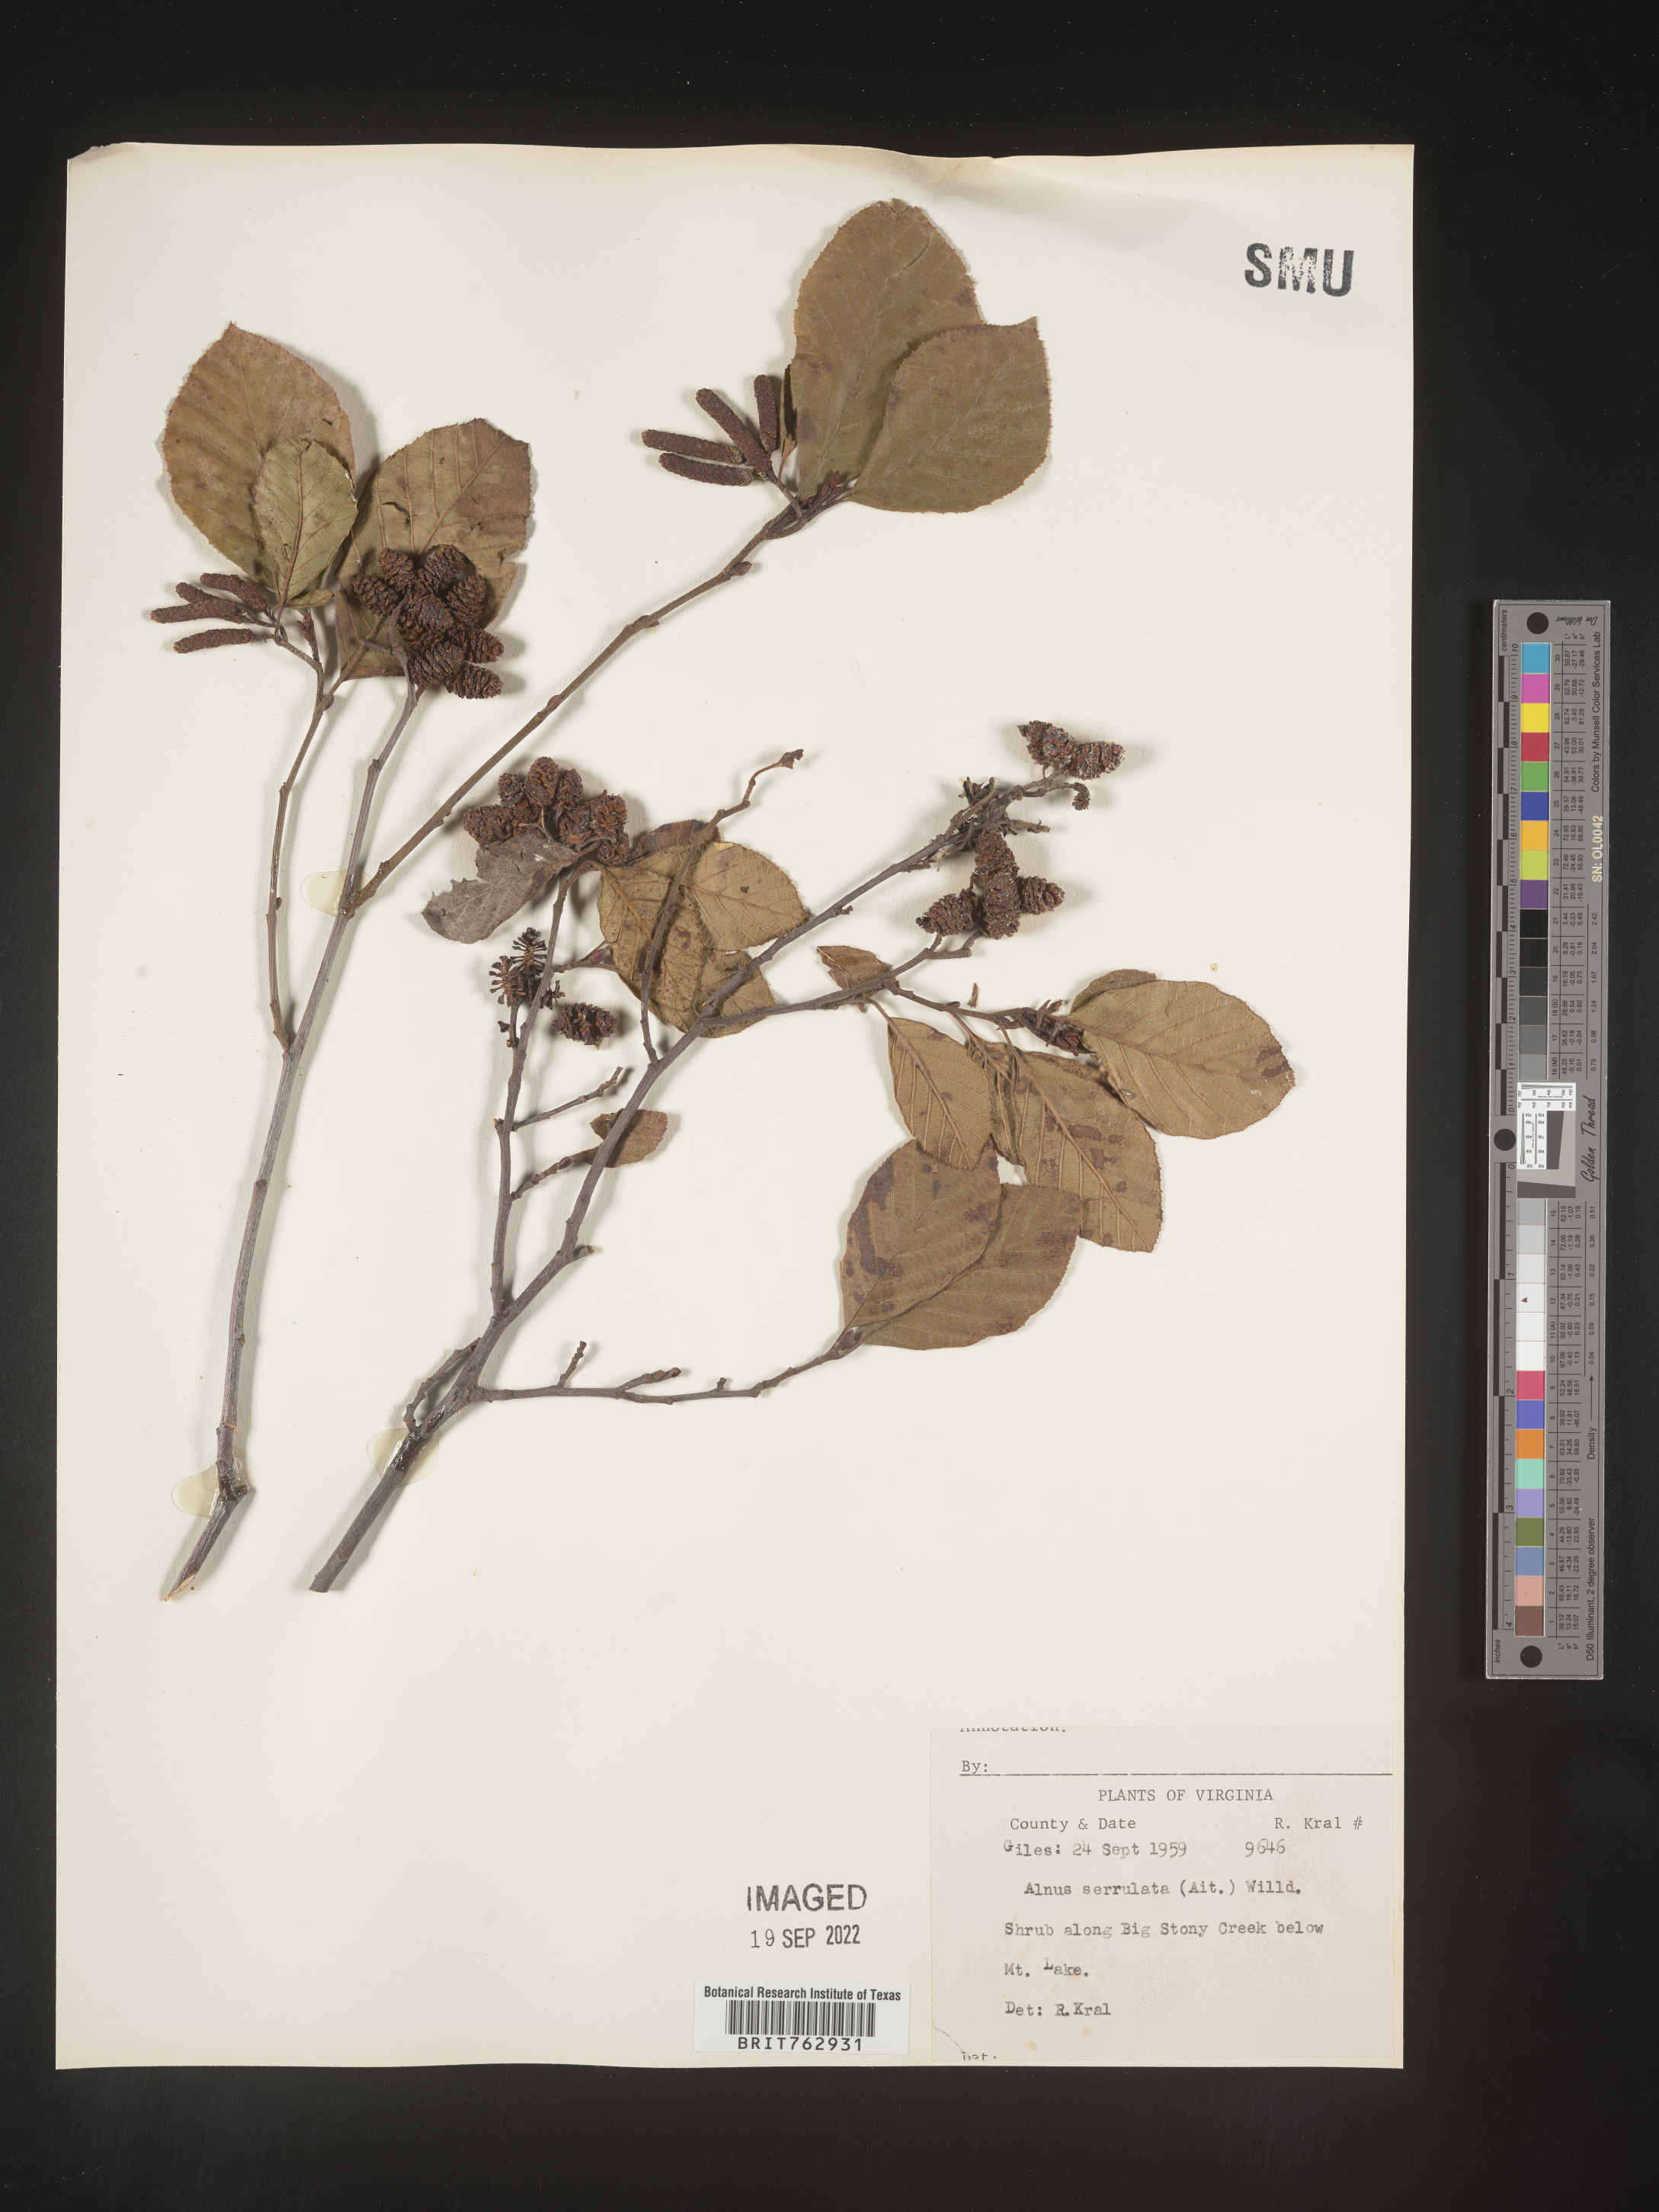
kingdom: Plantae
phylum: Tracheophyta
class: Magnoliopsida
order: Fagales
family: Betulaceae
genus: Alnus
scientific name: Alnus serrulata
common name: Hazel alder
